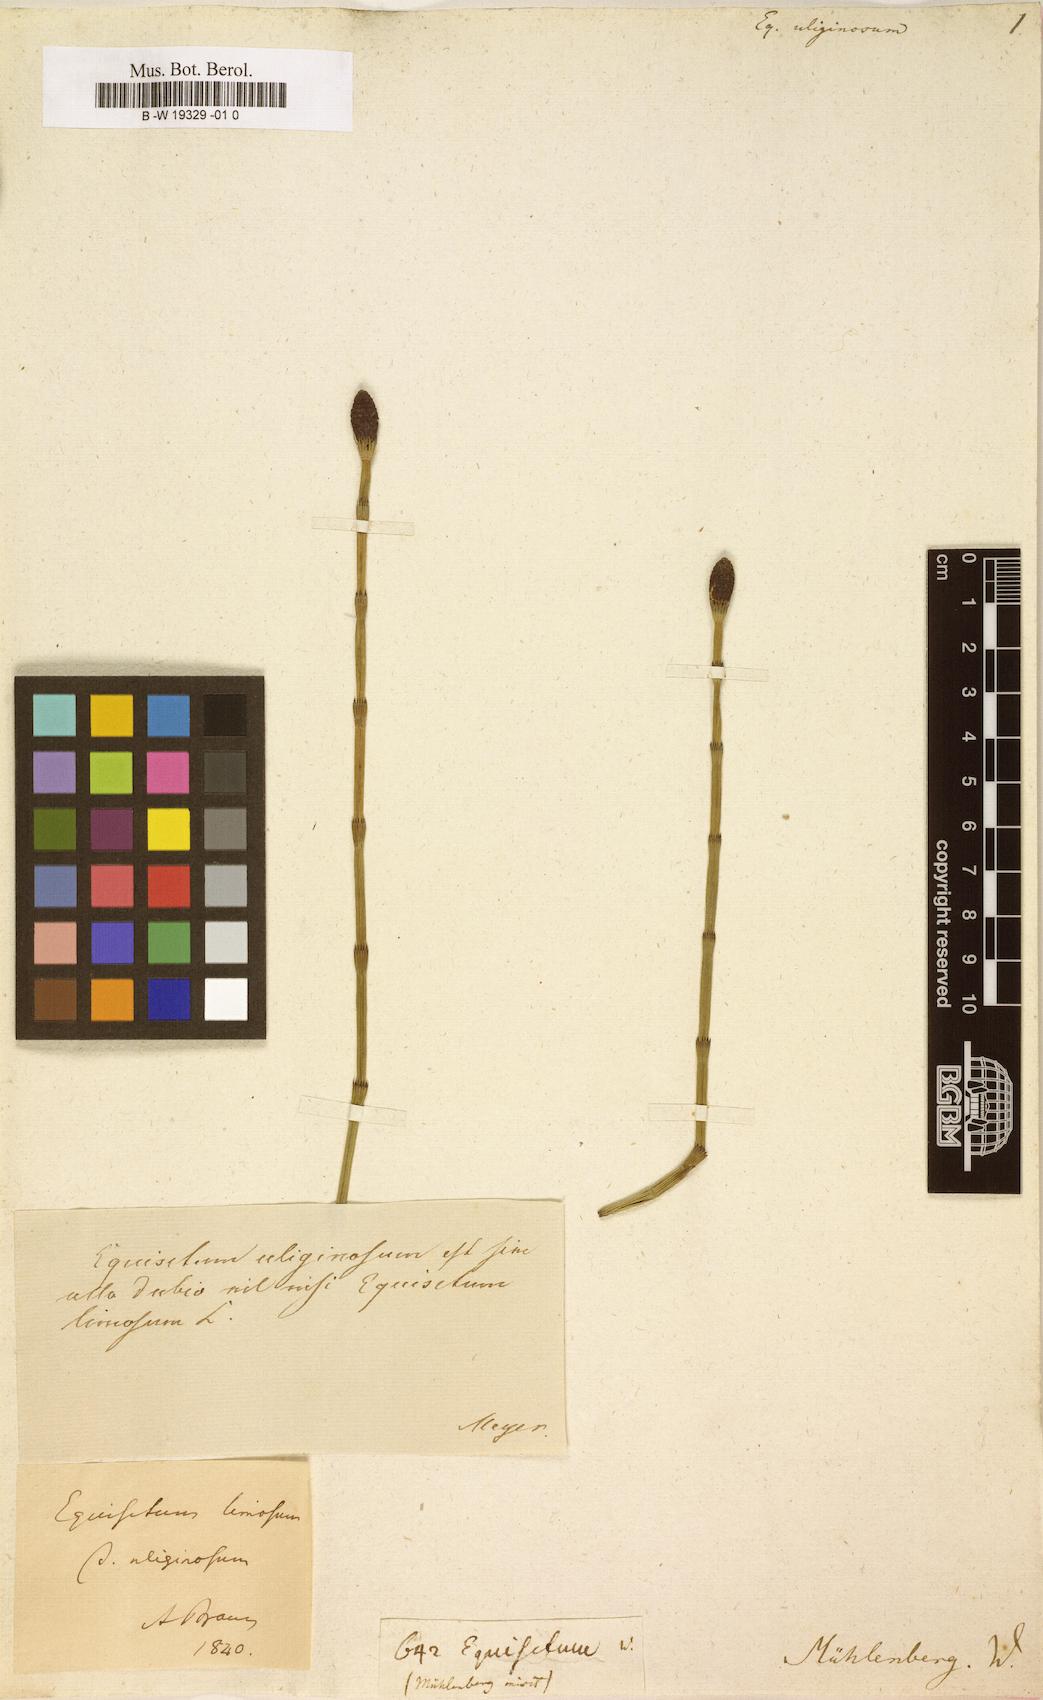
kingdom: Plantae
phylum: Tracheophyta
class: Polypodiopsida
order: Equisetales
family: Equisetaceae
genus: Equisetum
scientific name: Equisetum fluviatile
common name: Water horsetail
